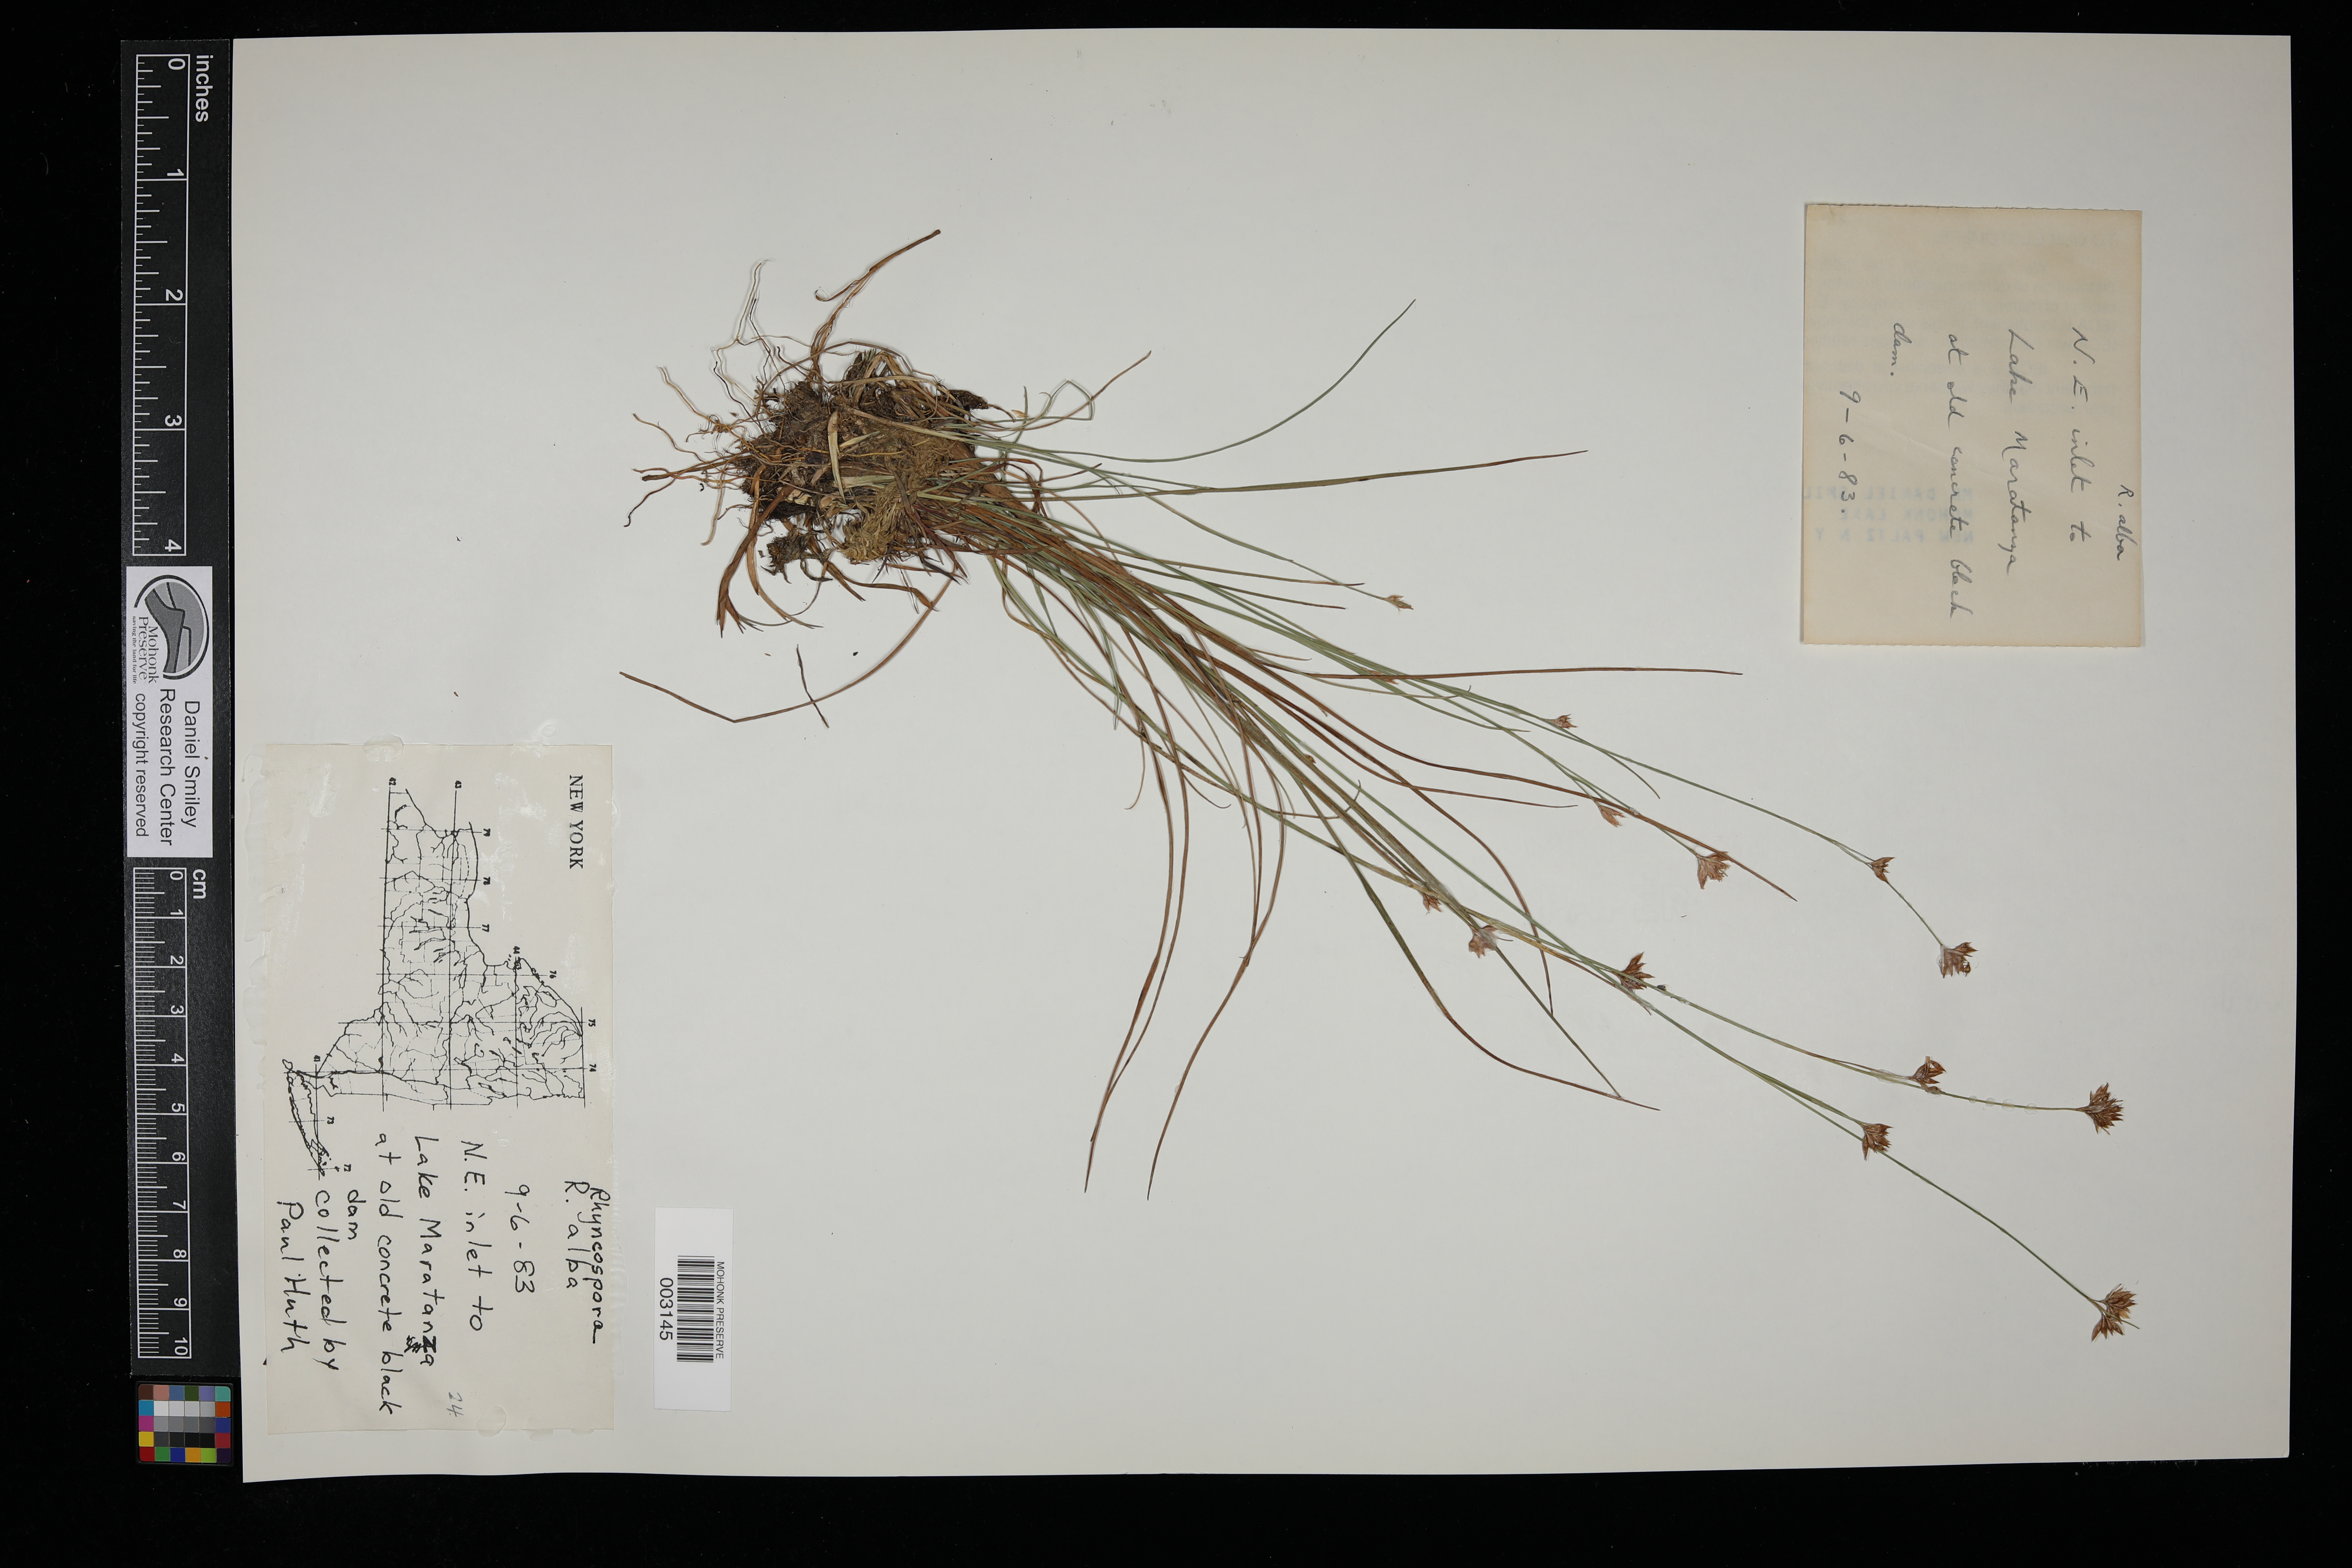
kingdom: Plantae
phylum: Tracheophyta
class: Liliopsida
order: Poales
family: Cyperaceae
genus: Rhynchospora
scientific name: Rhynchospora alba
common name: White beak-sedge
